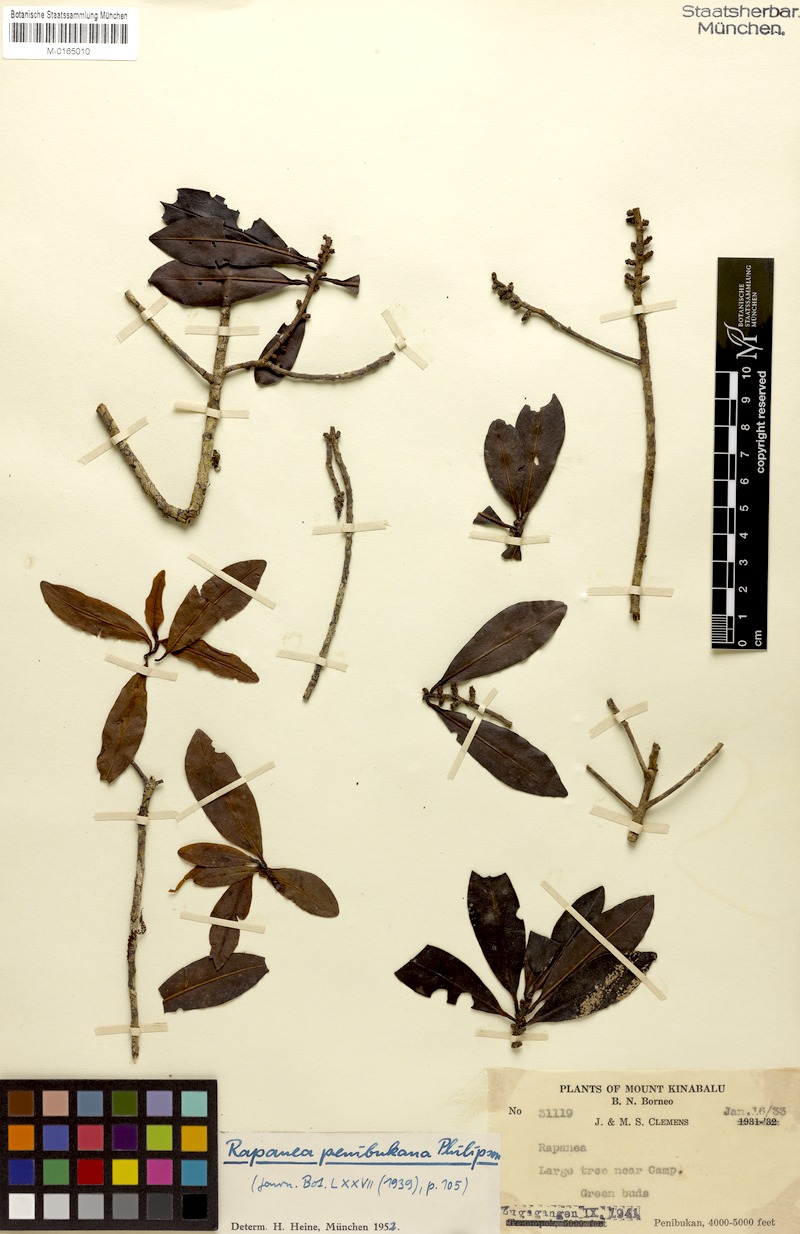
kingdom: Plantae
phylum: Tracheophyta
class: Magnoliopsida
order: Ericales
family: Primulaceae
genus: Myrsine
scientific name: Myrsine penibukana
